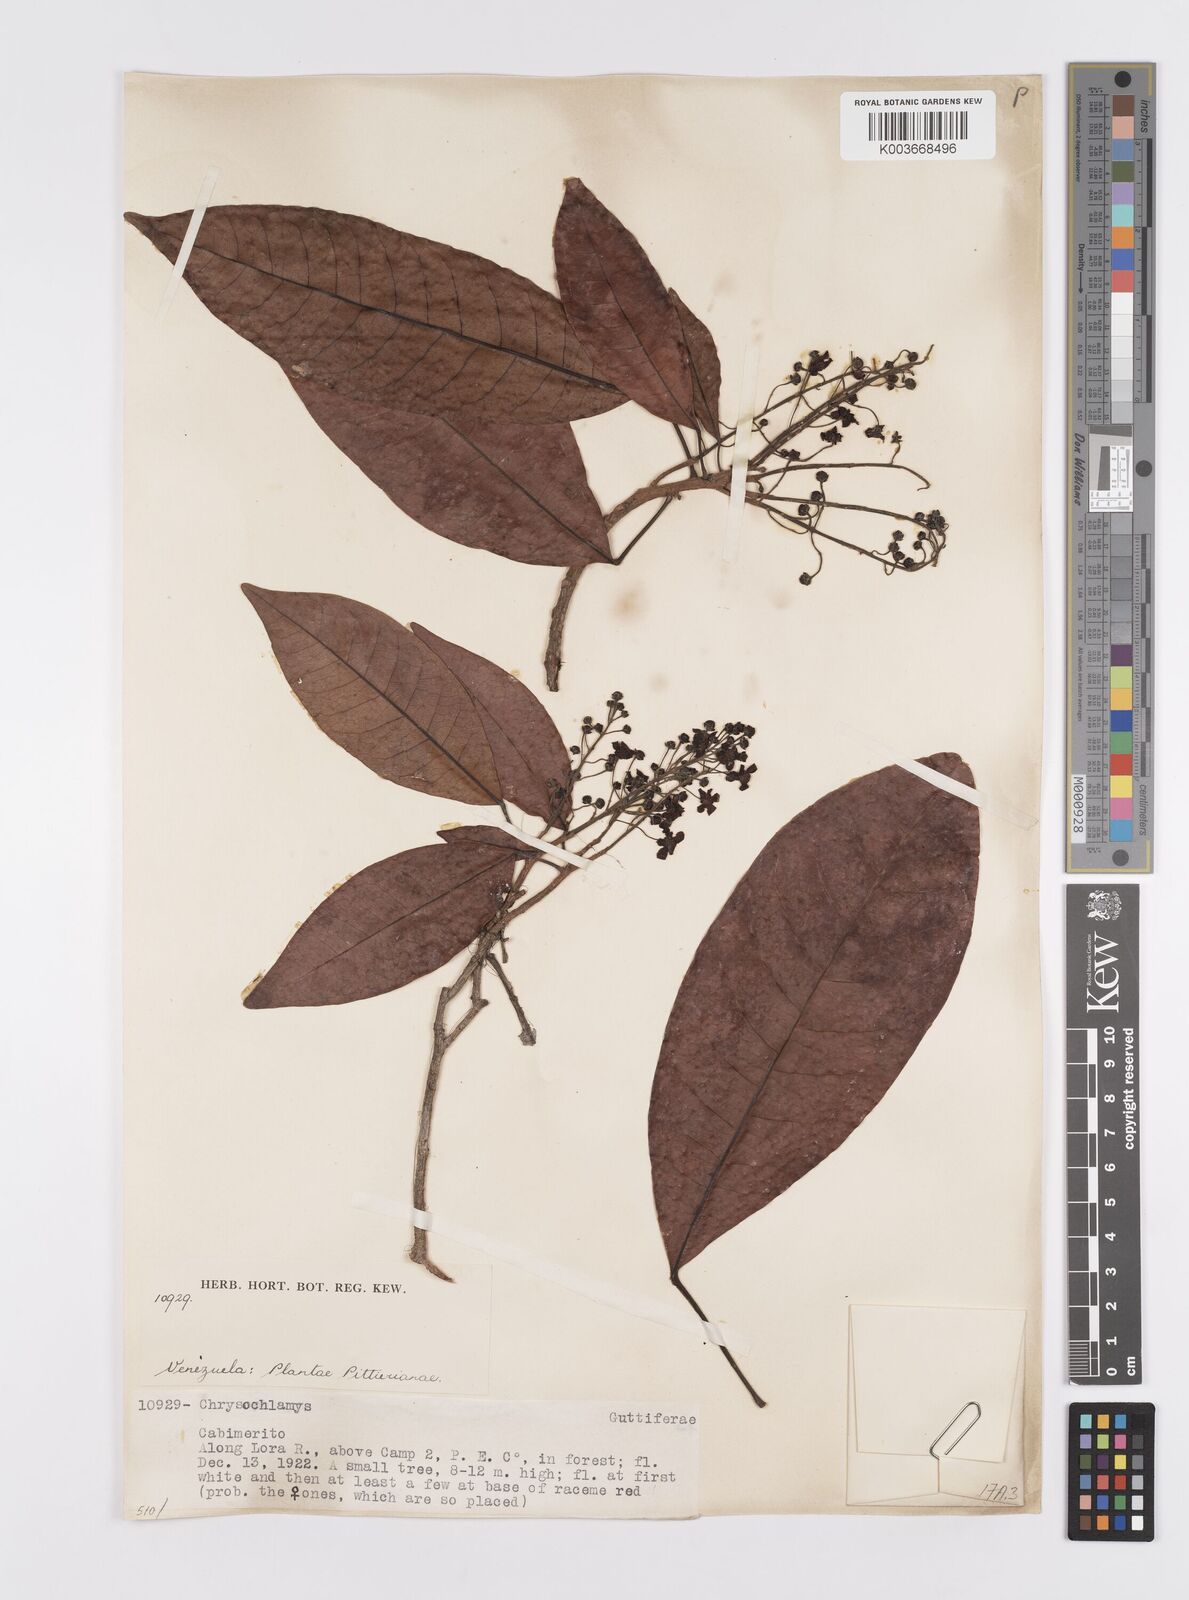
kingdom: Plantae
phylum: Tracheophyta
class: Magnoliopsida
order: Malpighiales
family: Clusiaceae
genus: Chrysochlamys
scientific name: Chrysochlamys
